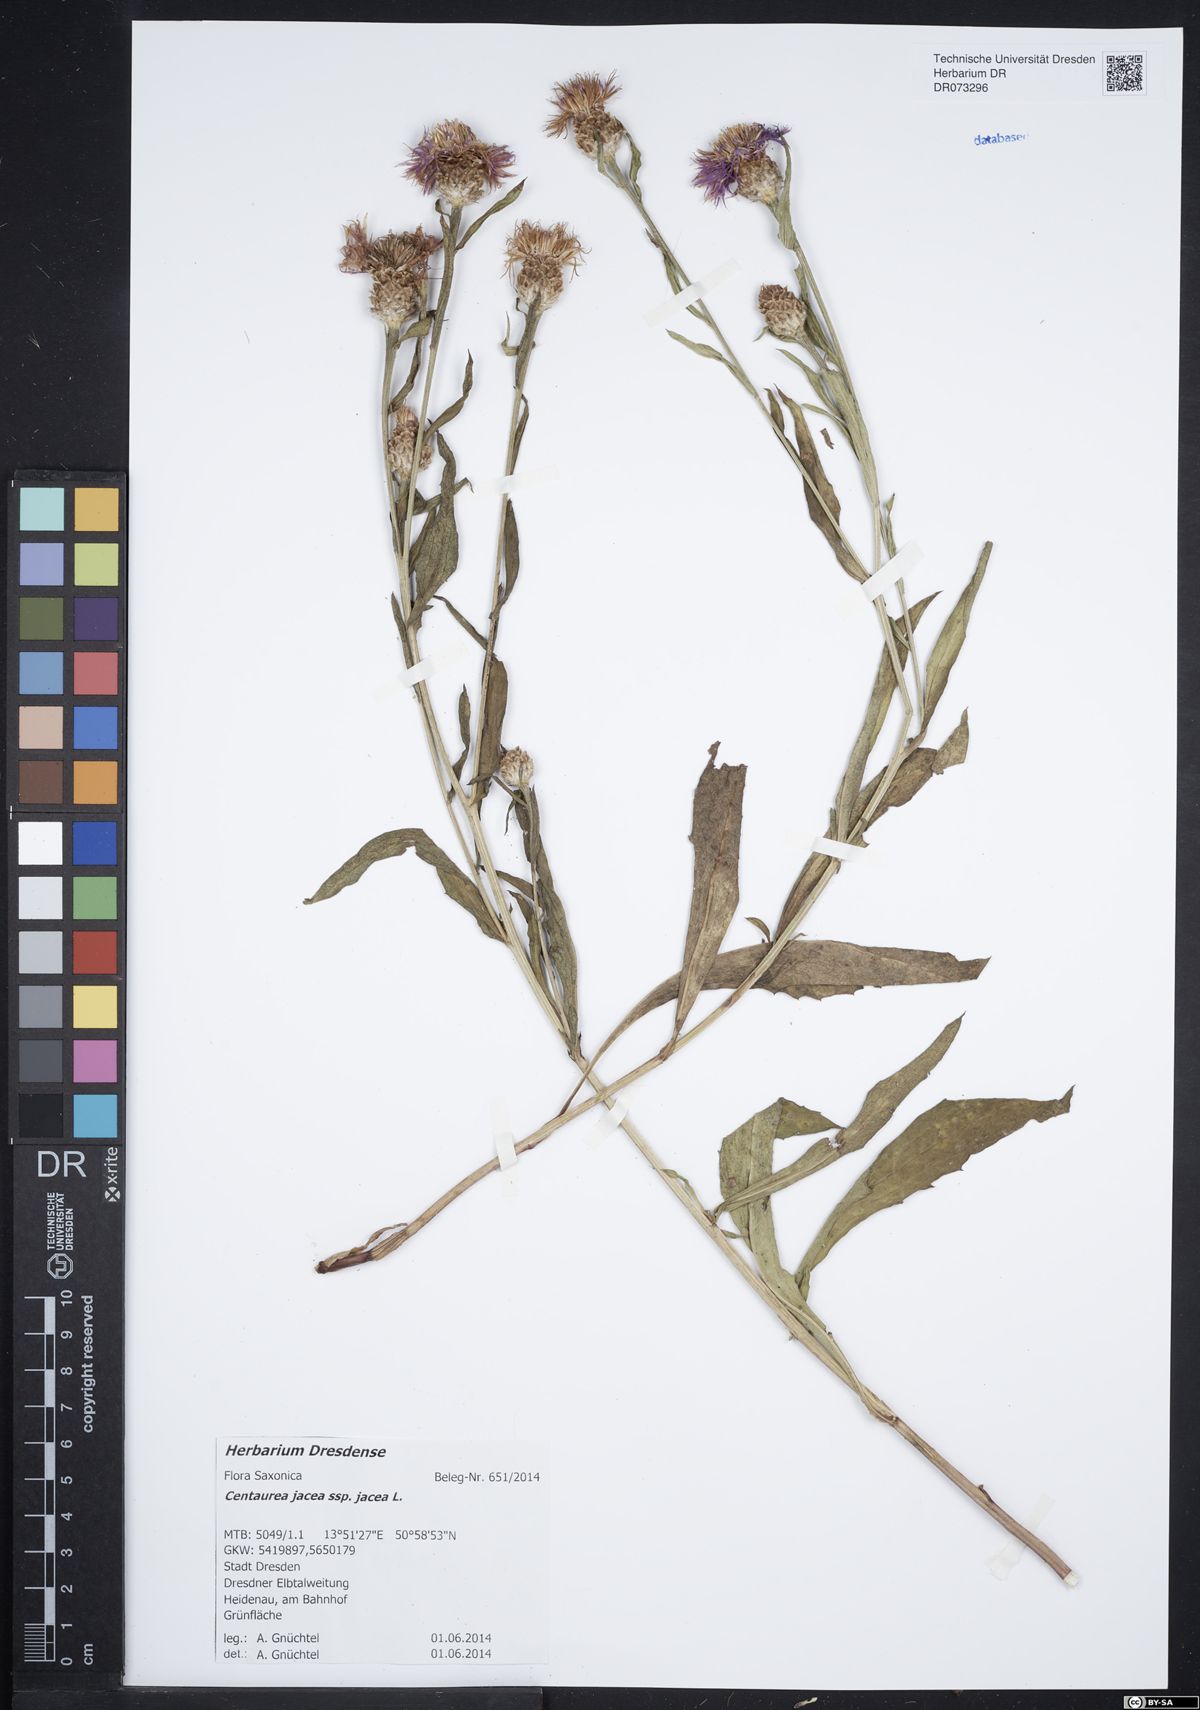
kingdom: Plantae
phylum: Tracheophyta
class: Magnoliopsida
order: Asterales
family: Asteraceae
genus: Centaurea
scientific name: Centaurea jacea
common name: Brown knapweed
